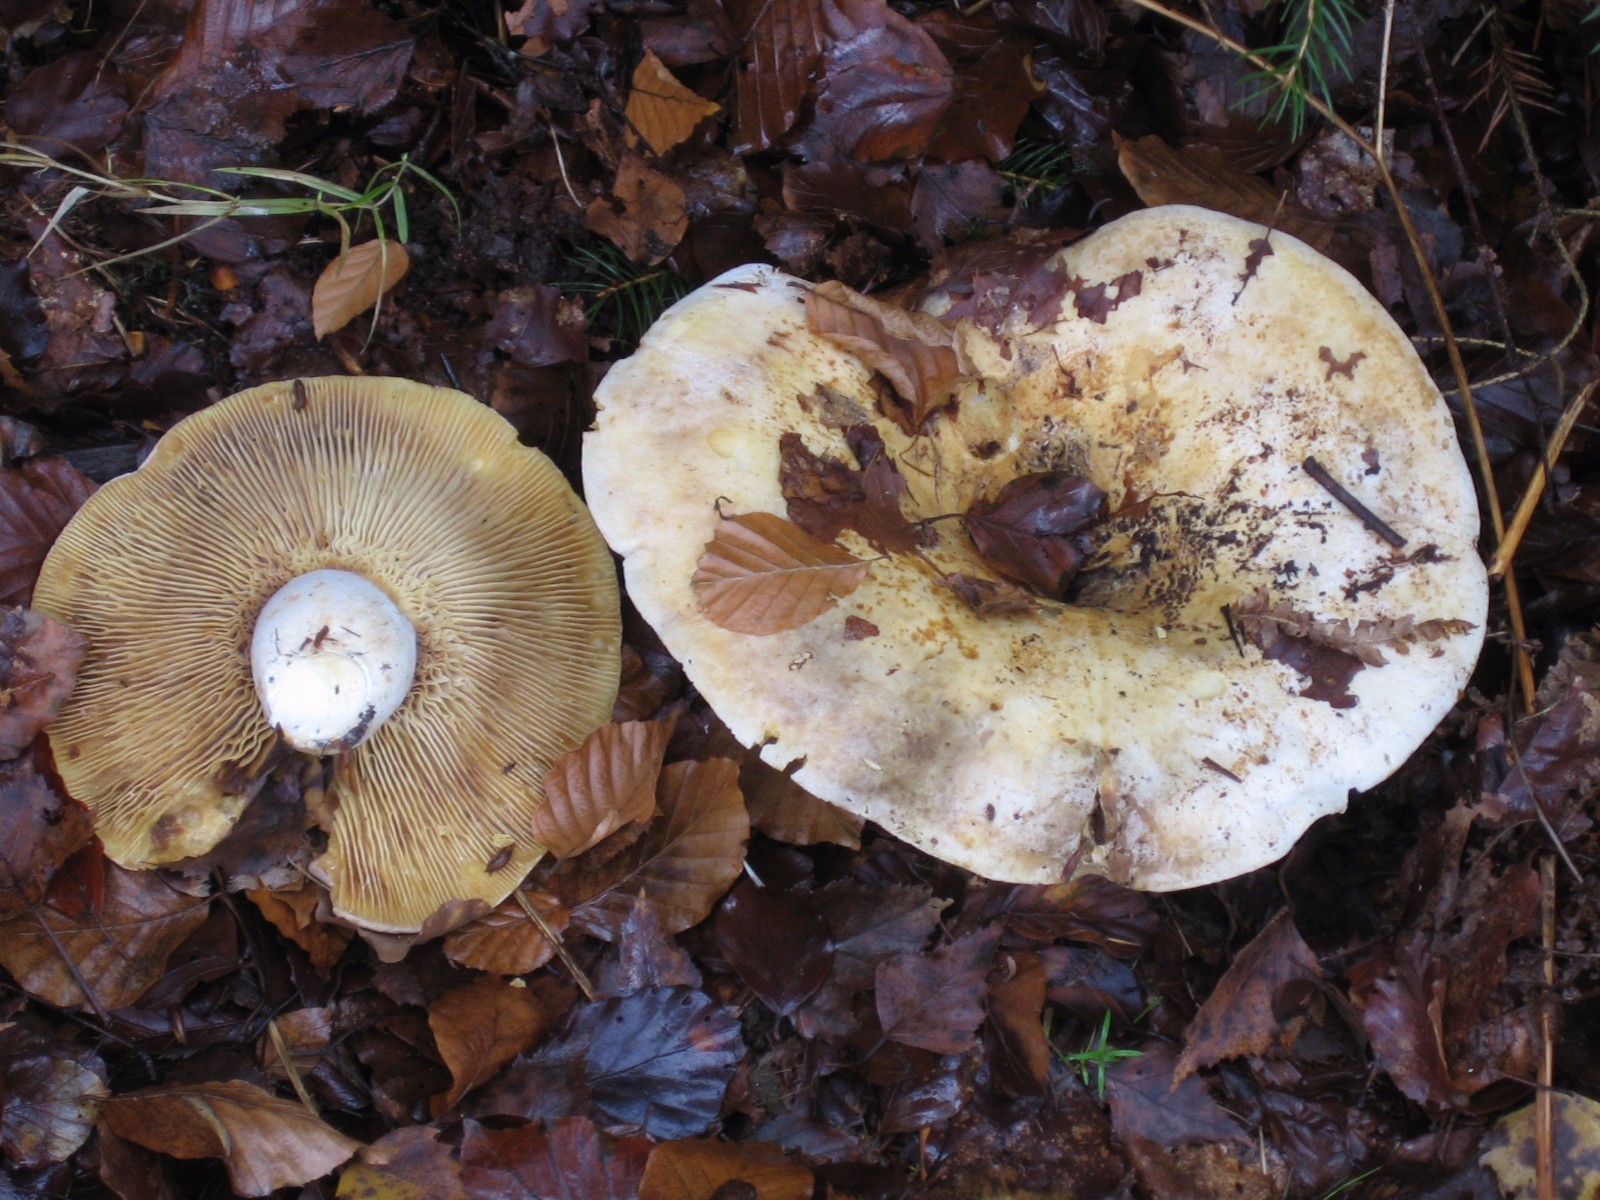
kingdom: Fungi
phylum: Basidiomycota
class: Agaricomycetes
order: Russulales
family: Russulaceae
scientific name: Russulaceae
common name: skørhatfamilien
